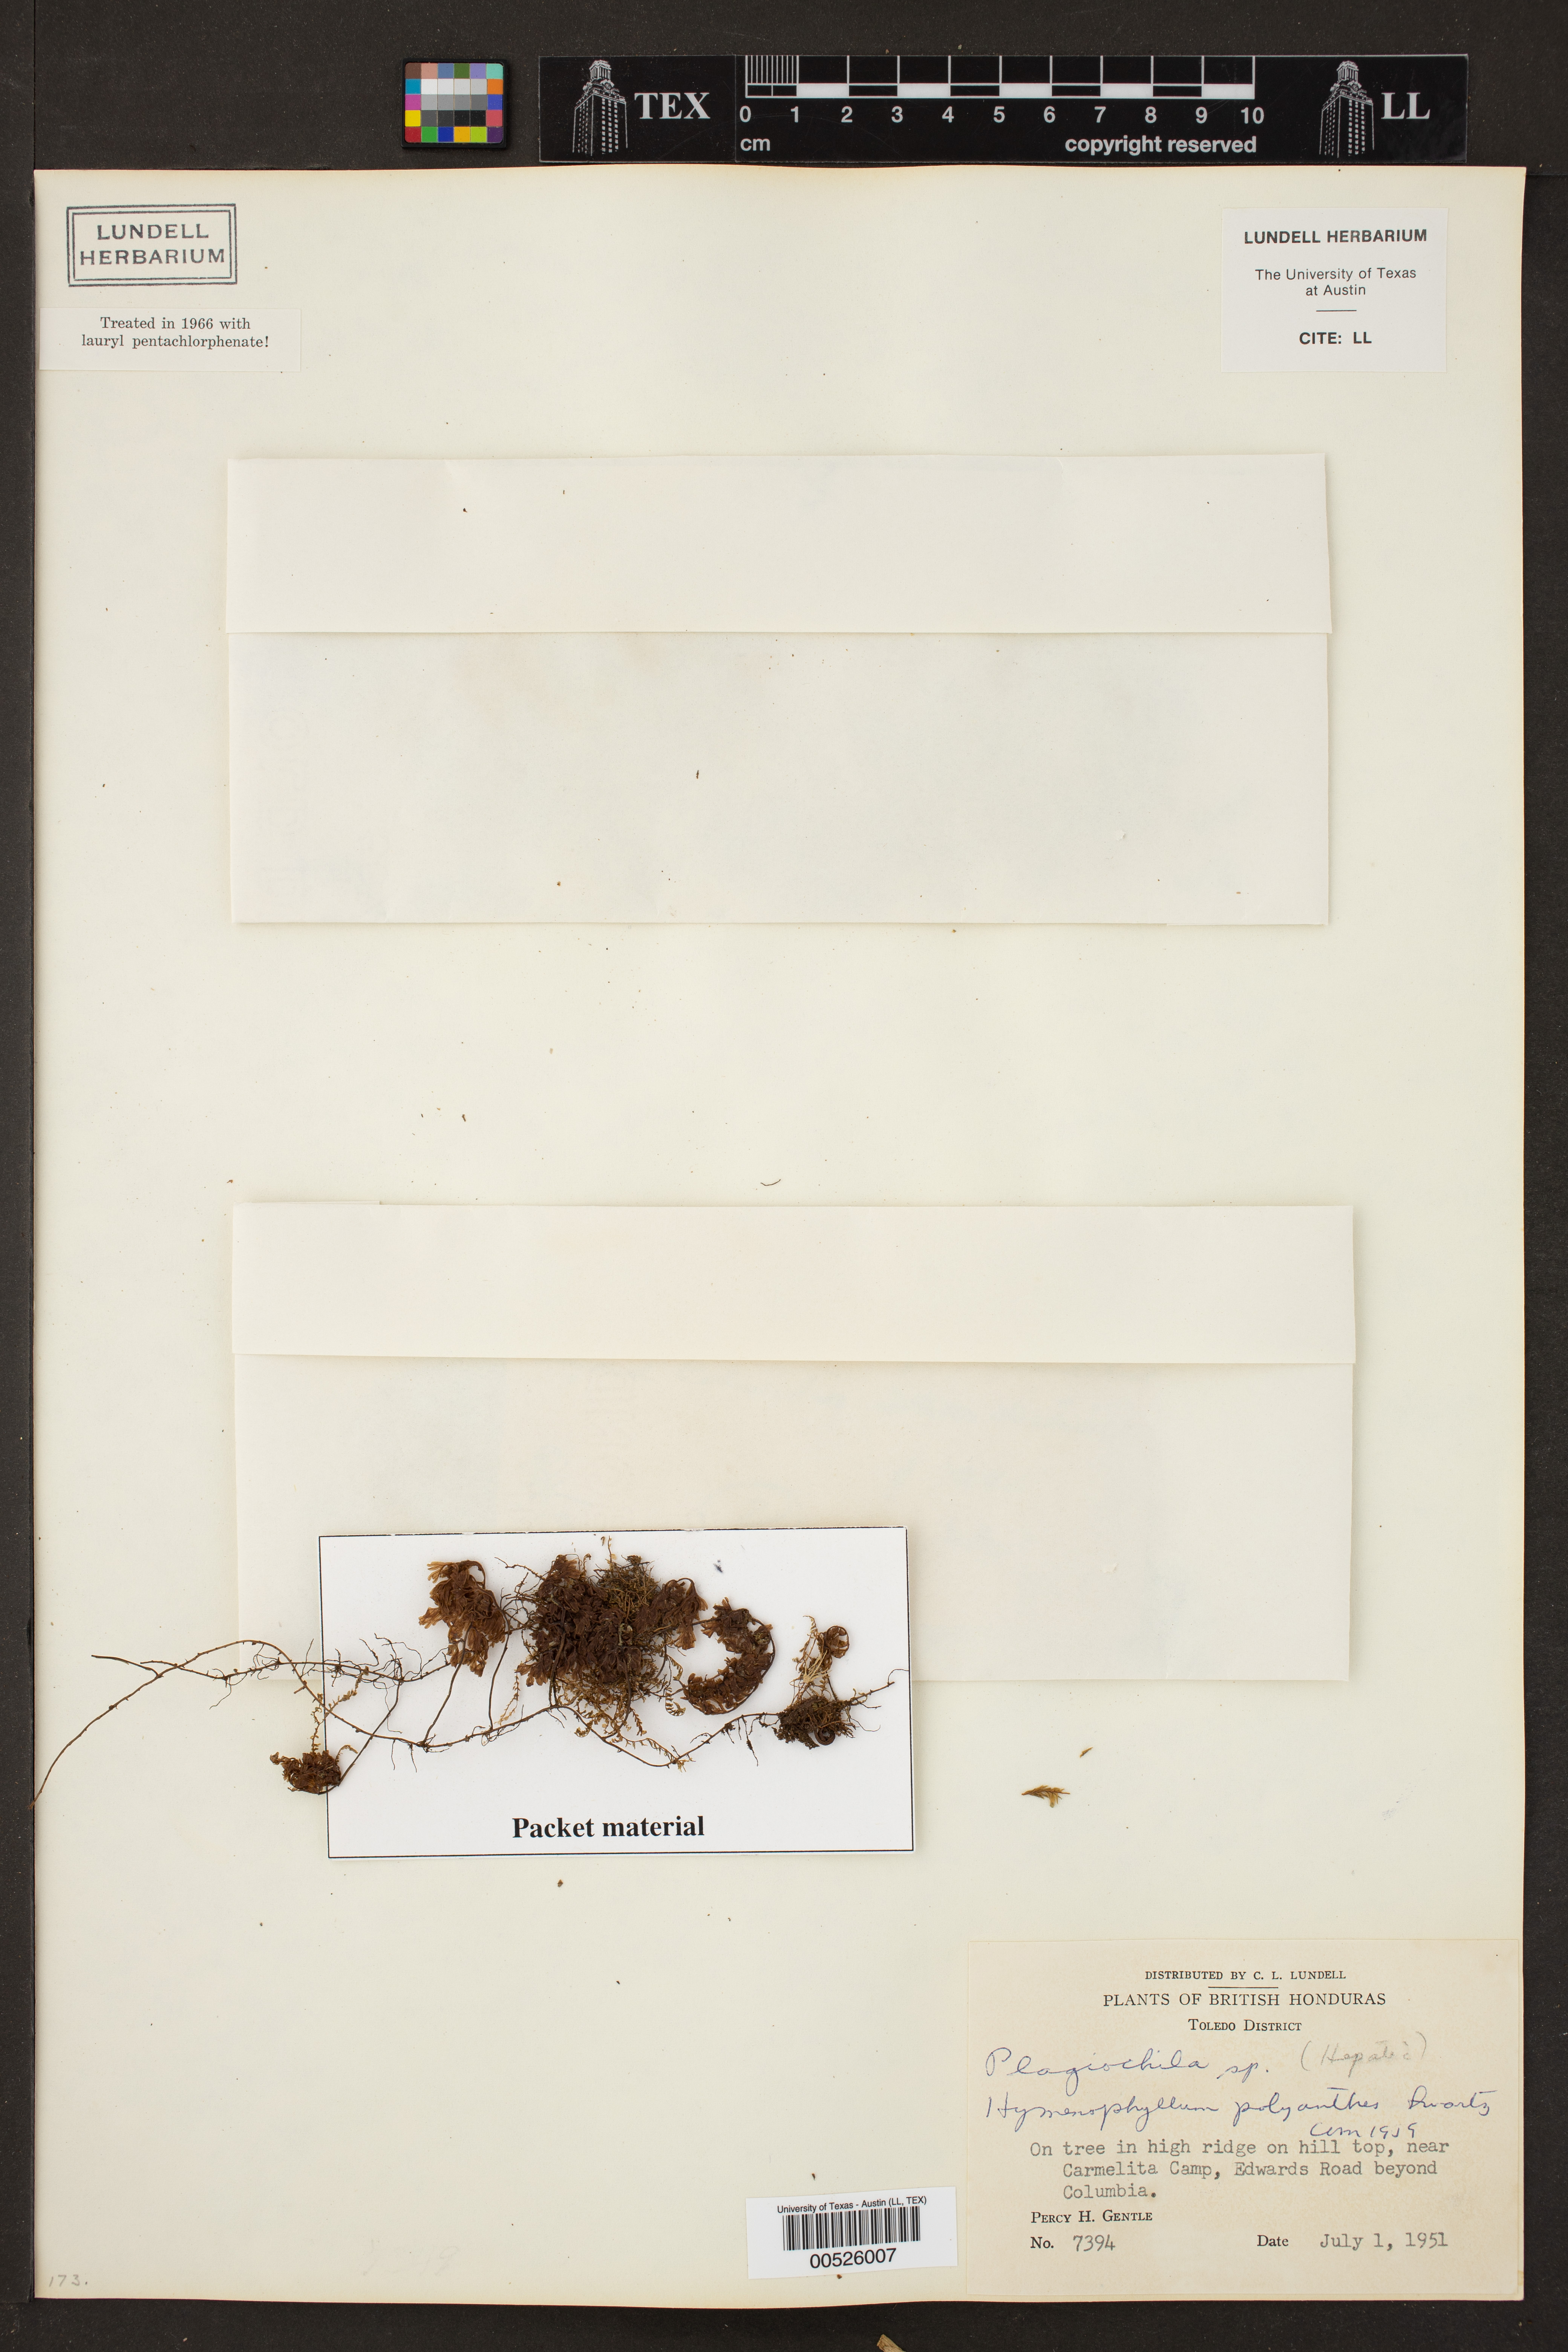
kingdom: Plantae
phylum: Tracheophyta
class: Polypodiopsida
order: Hymenophyllales
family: Hymenophyllaceae
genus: Hymenophyllum
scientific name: Hymenophyllum polyanthos
